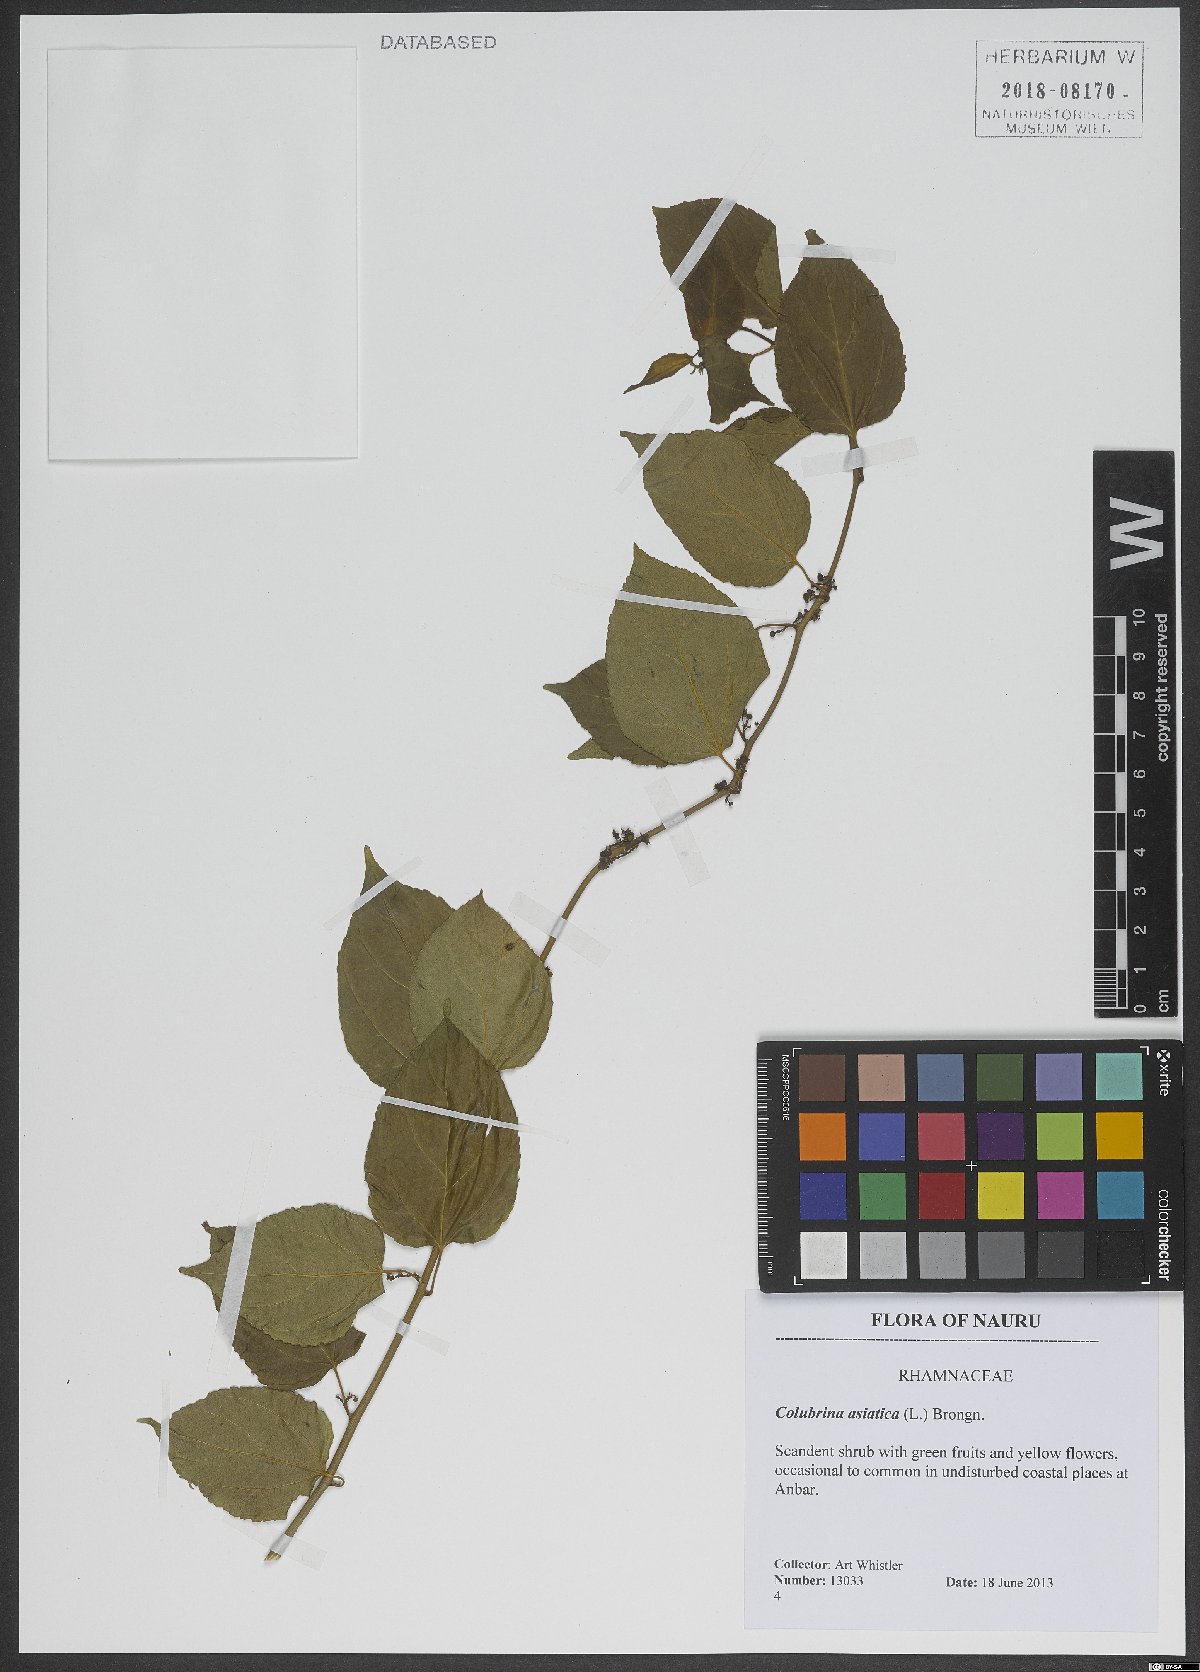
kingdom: Plantae
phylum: Tracheophyta
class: Magnoliopsida
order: Rosales
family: Rhamnaceae
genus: Colubrina
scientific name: Colubrina asiatica
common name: Asian nakedwood
